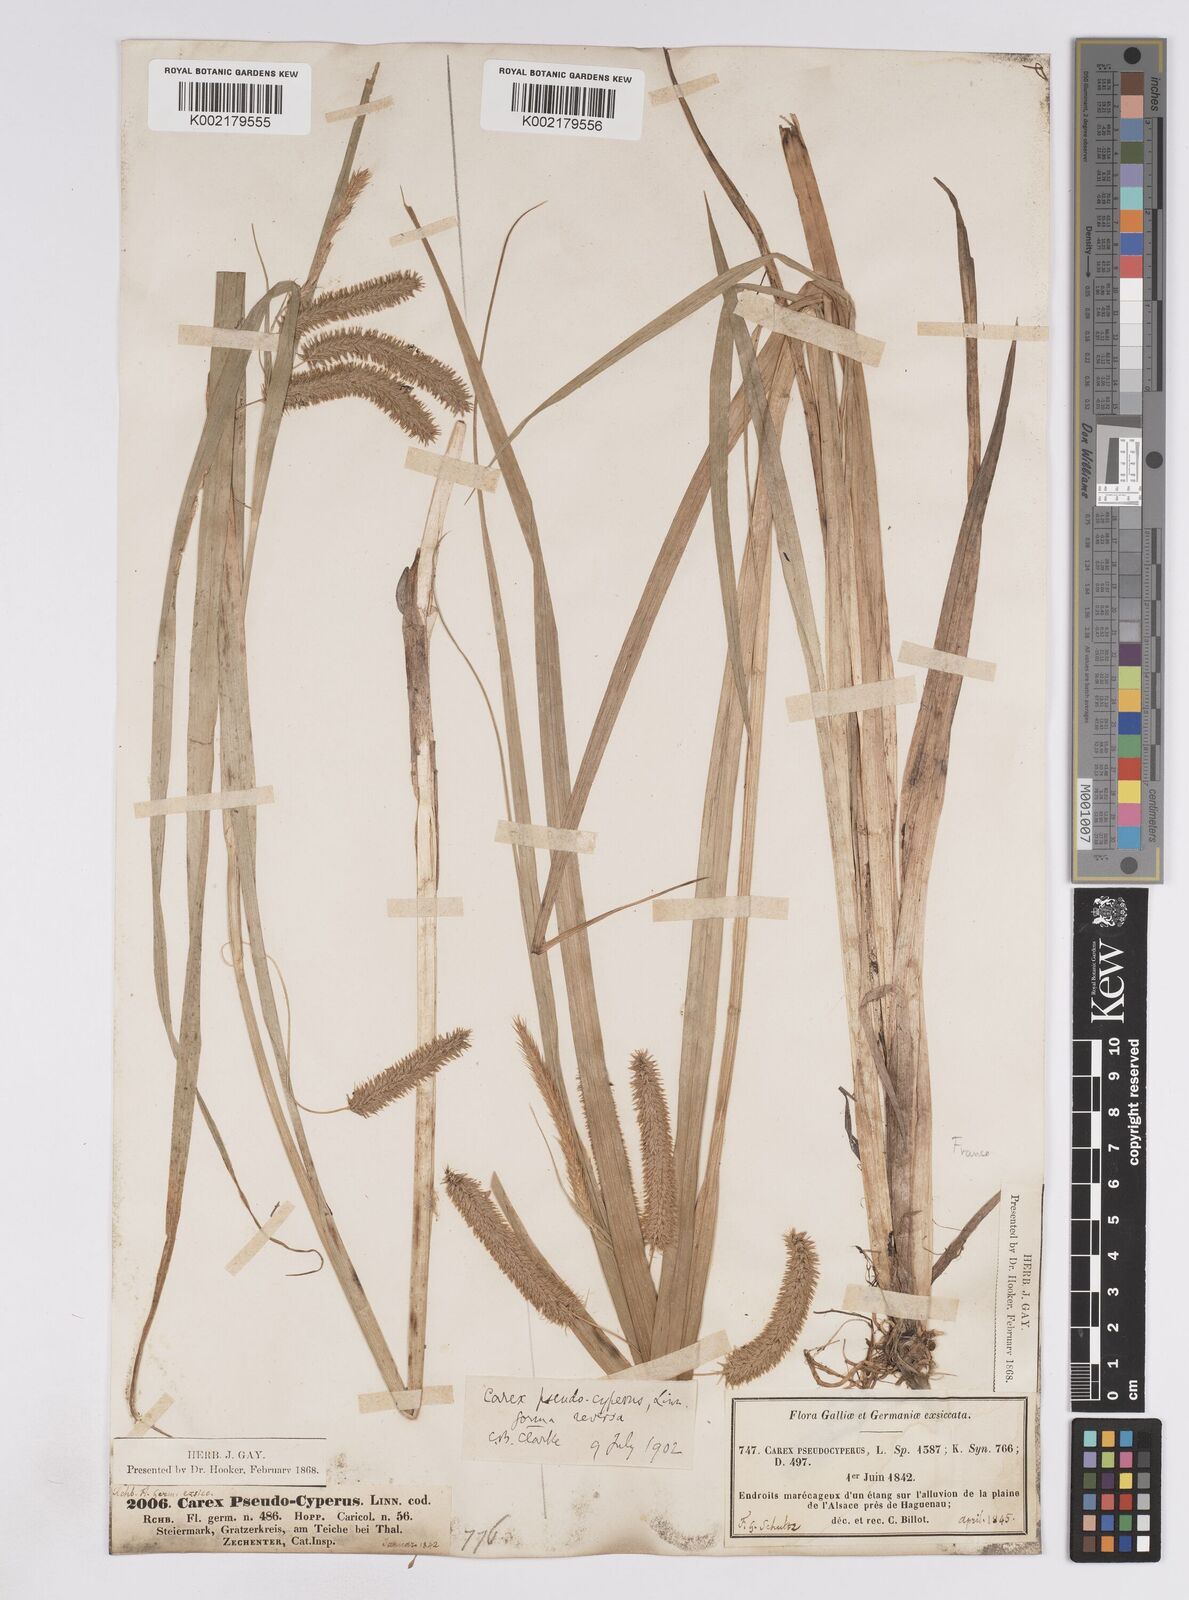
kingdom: Plantae
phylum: Tracheophyta
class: Liliopsida
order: Poales
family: Cyperaceae
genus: Carex
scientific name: Carex pseudocyperus
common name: Cyperus sedge
